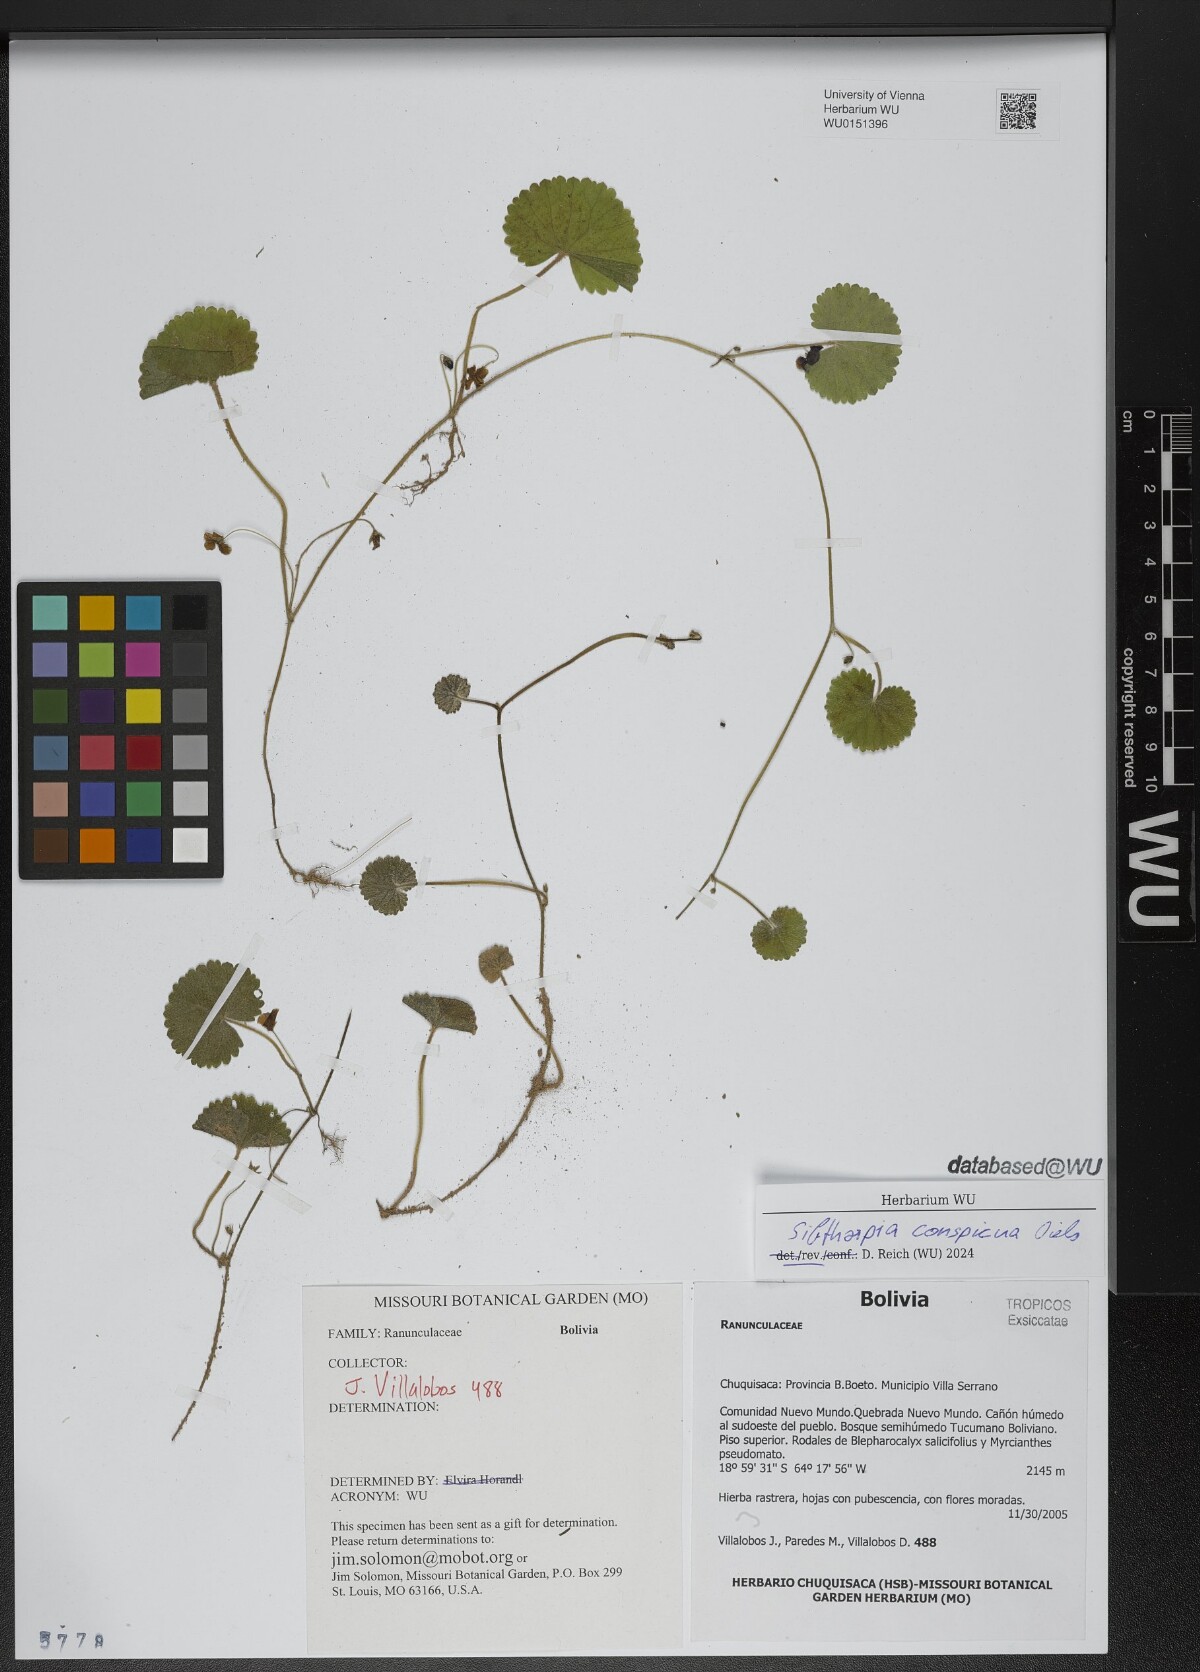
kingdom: Plantae
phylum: Tracheophyta
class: Magnoliopsida
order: Lamiales
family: Plantaginaceae
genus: Sibthorpia
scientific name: Sibthorpia conspicua
